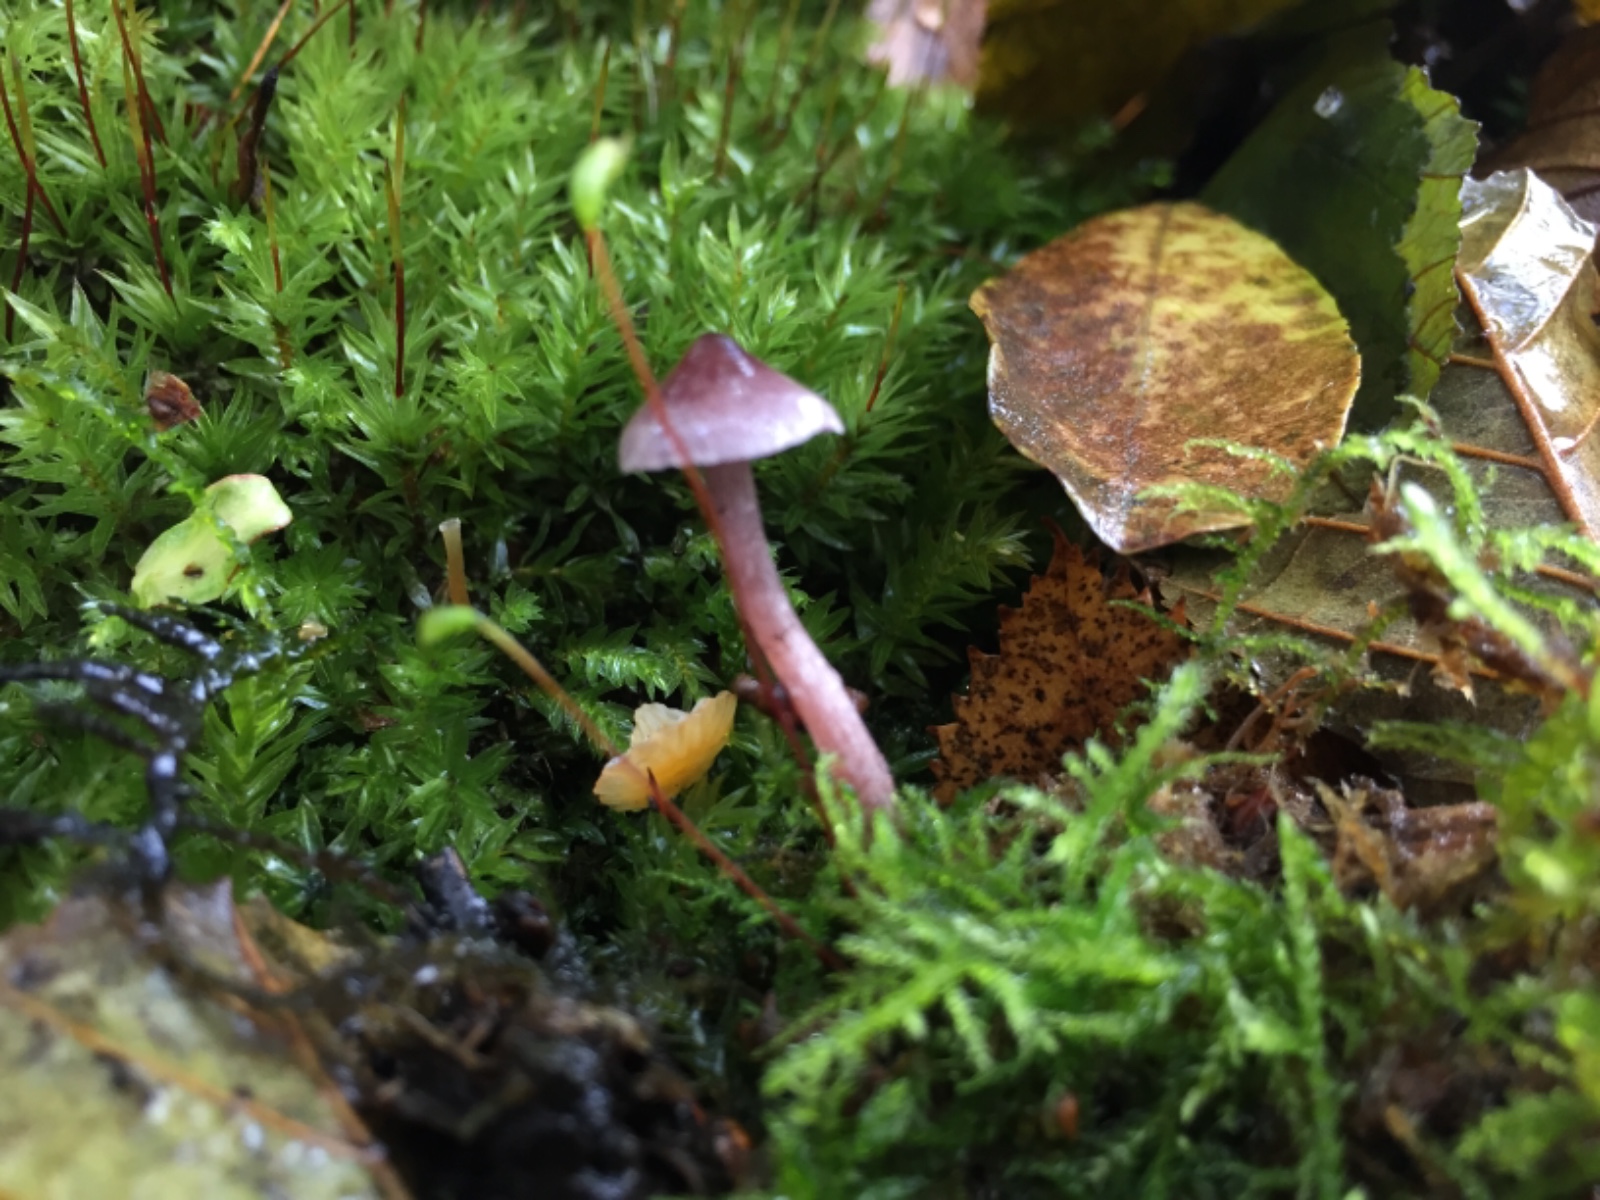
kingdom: Fungi
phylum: Basidiomycota
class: Agaricomycetes
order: Agaricales
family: Cortinariaceae
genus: Cortinarius
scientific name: Cortinarius bibulus
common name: smuk slørhat
